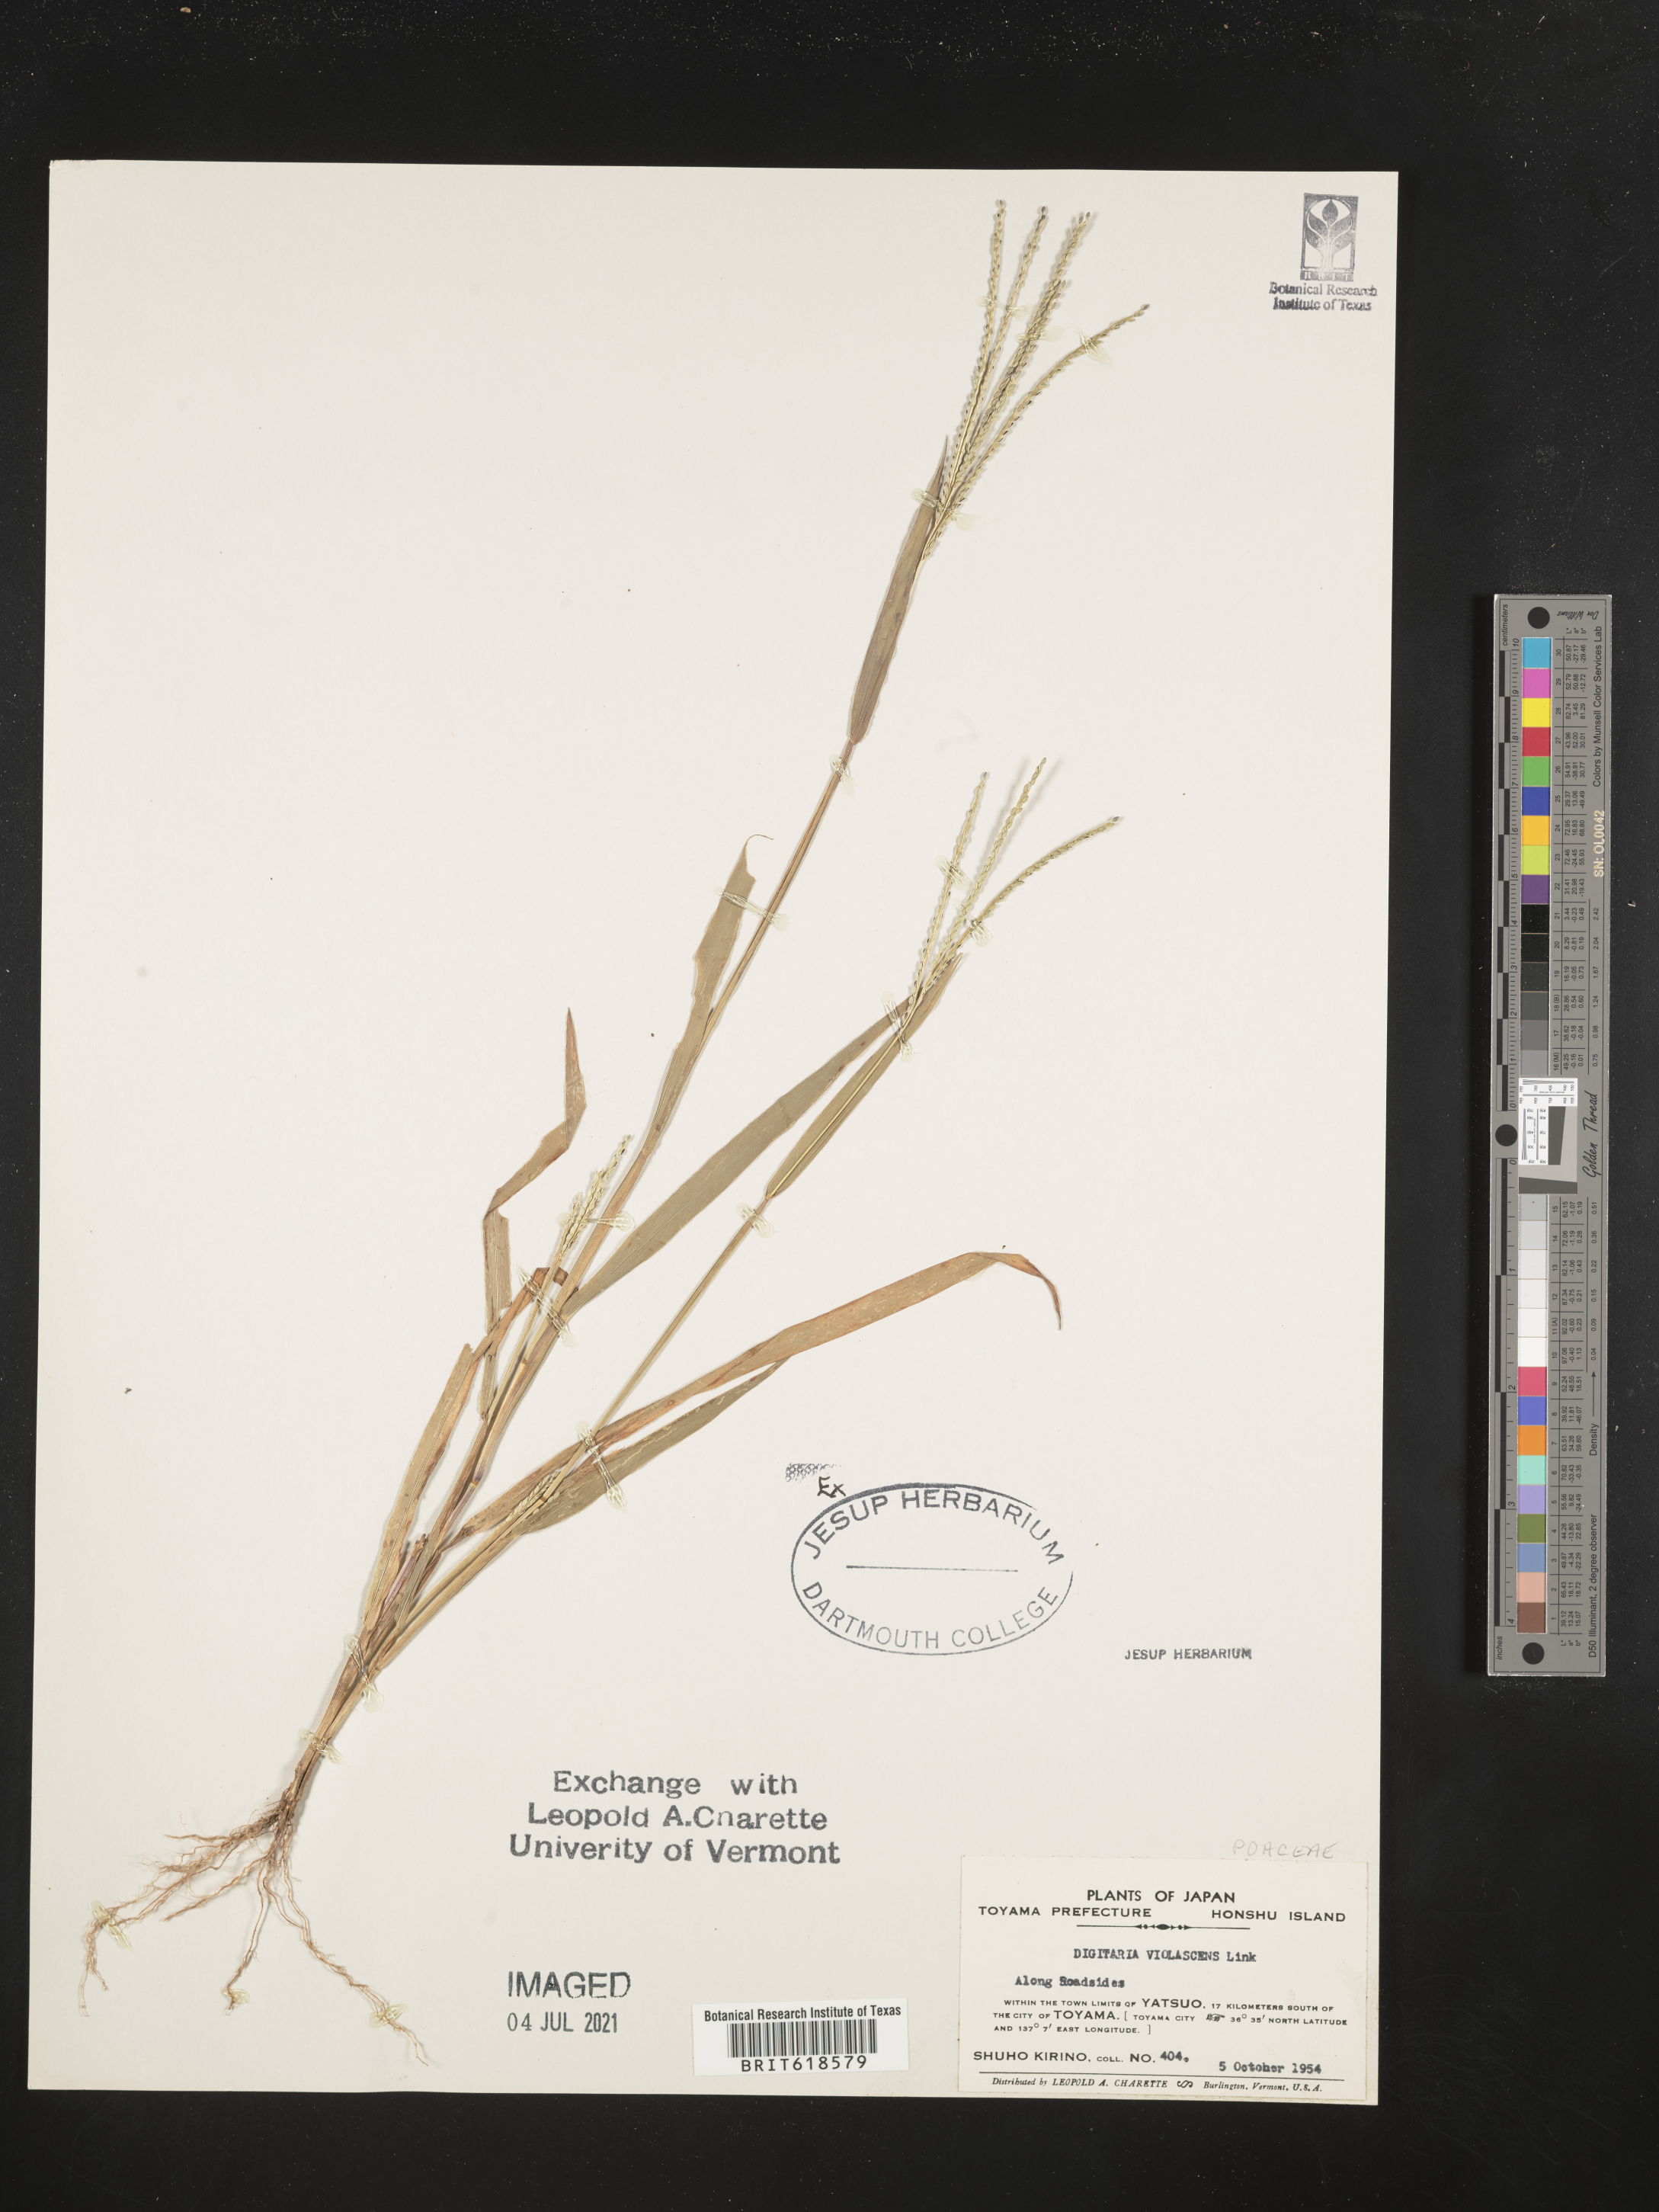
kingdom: Plantae
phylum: Tracheophyta
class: Liliopsida
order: Poales
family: Poaceae
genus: Digitaria
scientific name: Digitaria violascens
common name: Violet crabgrass
